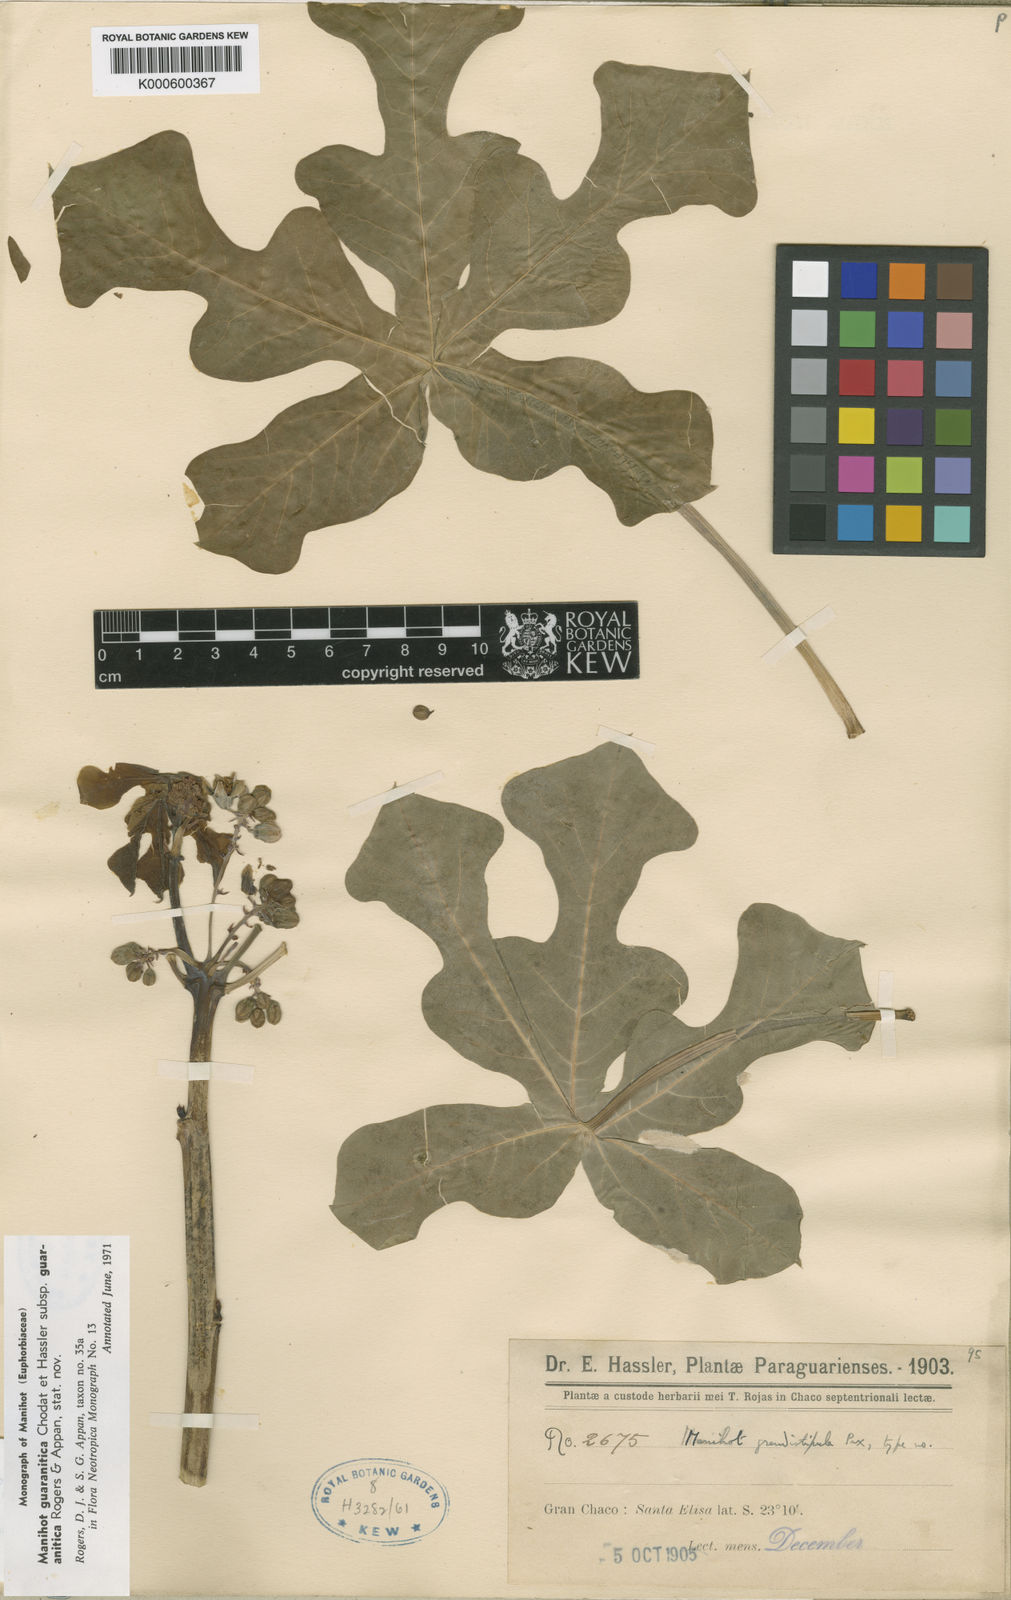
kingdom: Plantae
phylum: Tracheophyta
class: Magnoliopsida
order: Malpighiales
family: Euphorbiaceae
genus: Manihot
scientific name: Manihot guaranitica
